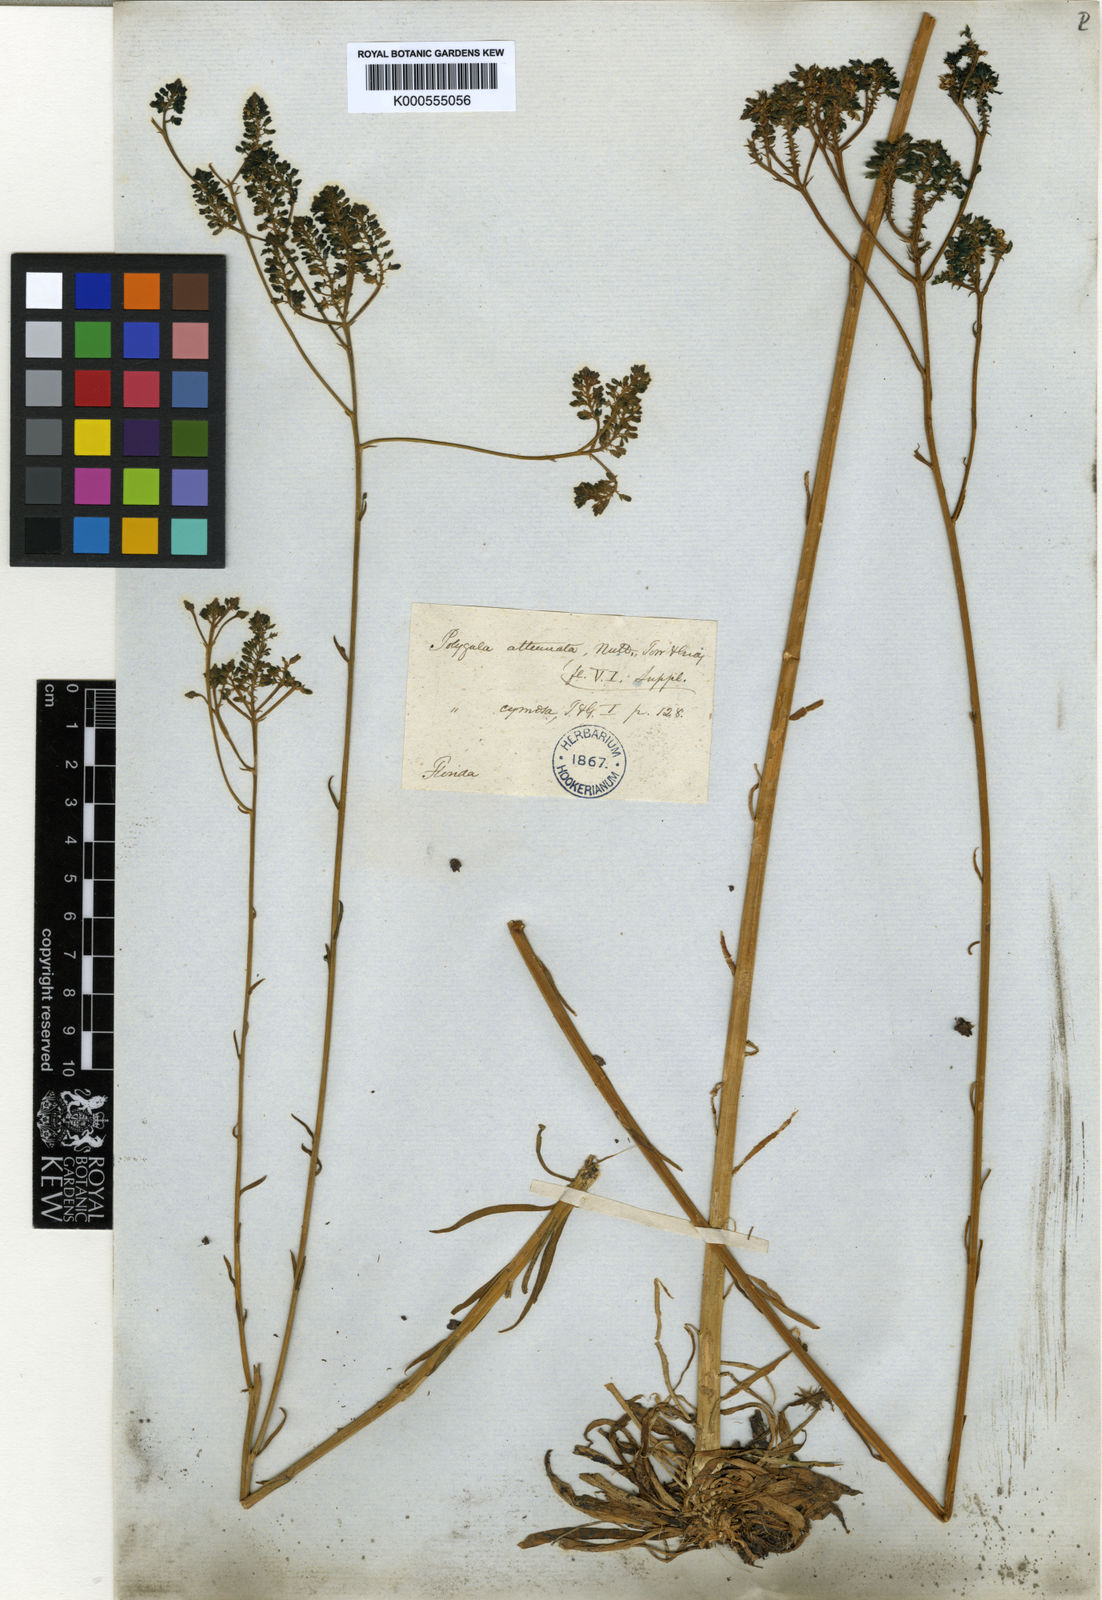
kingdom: Plantae
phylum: Tracheophyta
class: Magnoliopsida
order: Fabales
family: Polygalaceae
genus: Polygala
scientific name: Polygala
